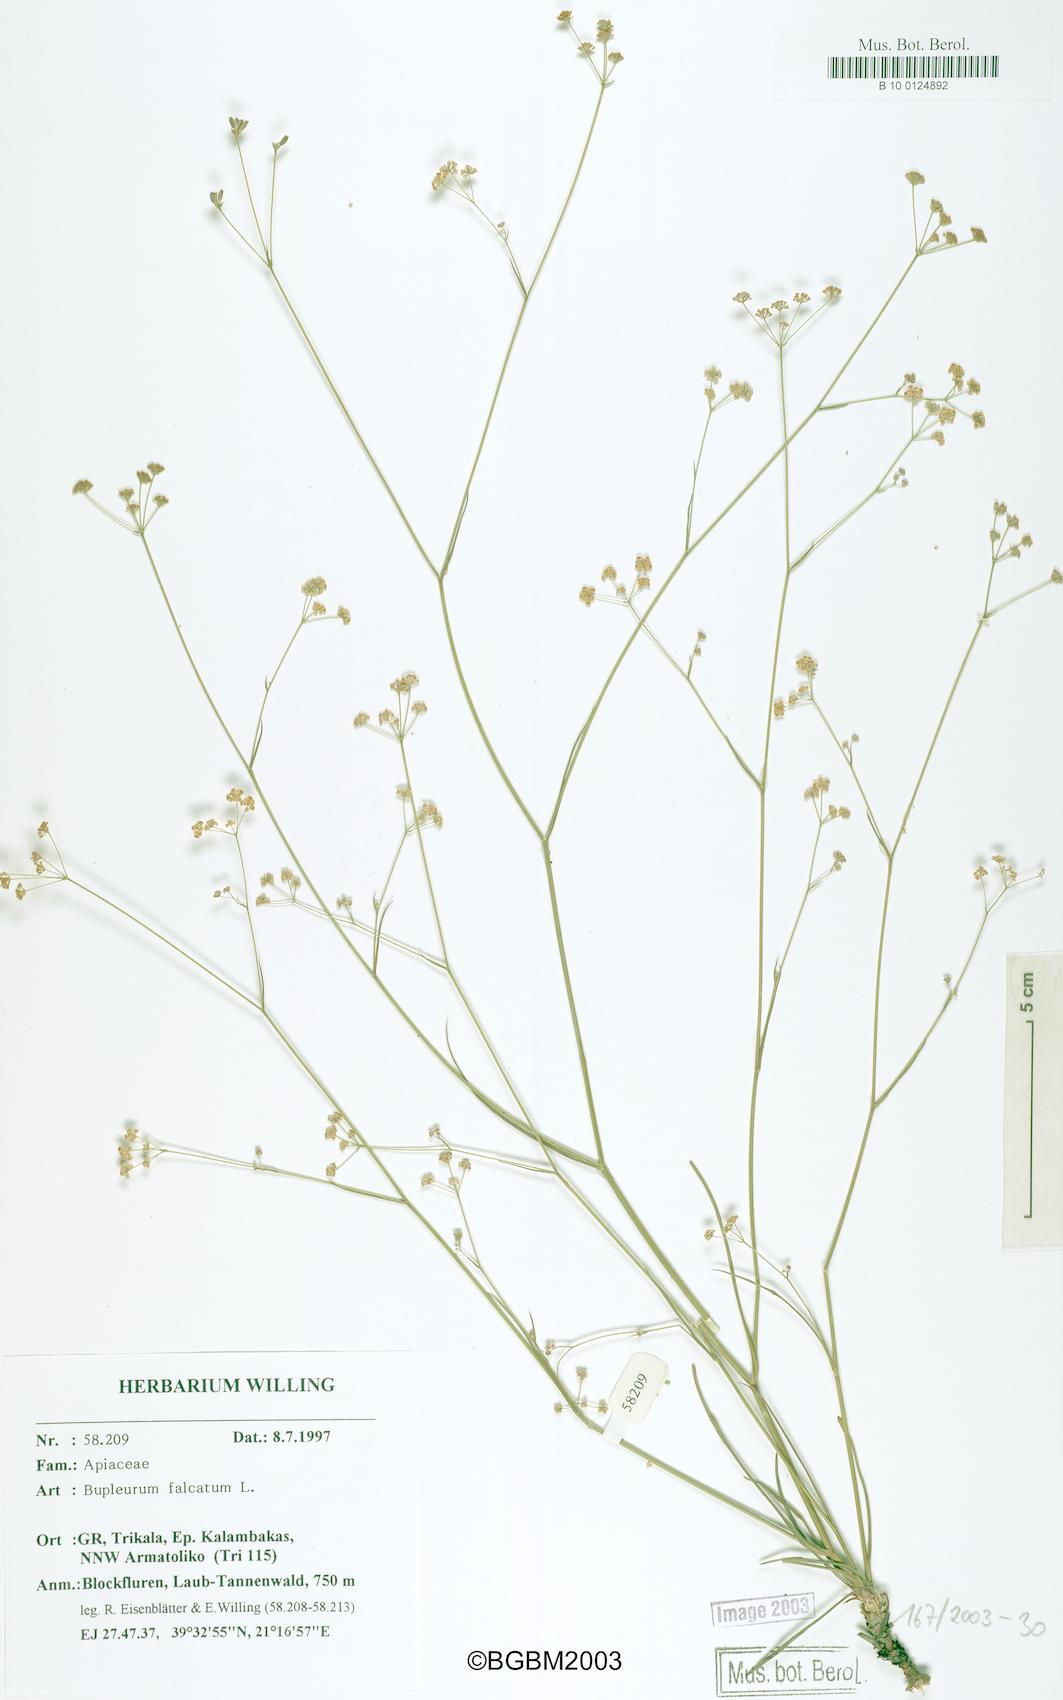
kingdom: Plantae
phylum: Tracheophyta
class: Magnoliopsida
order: Apiales
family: Apiaceae
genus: Bupleurum
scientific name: Bupleurum falcatum
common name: Sickle-leaved hare's-ear
